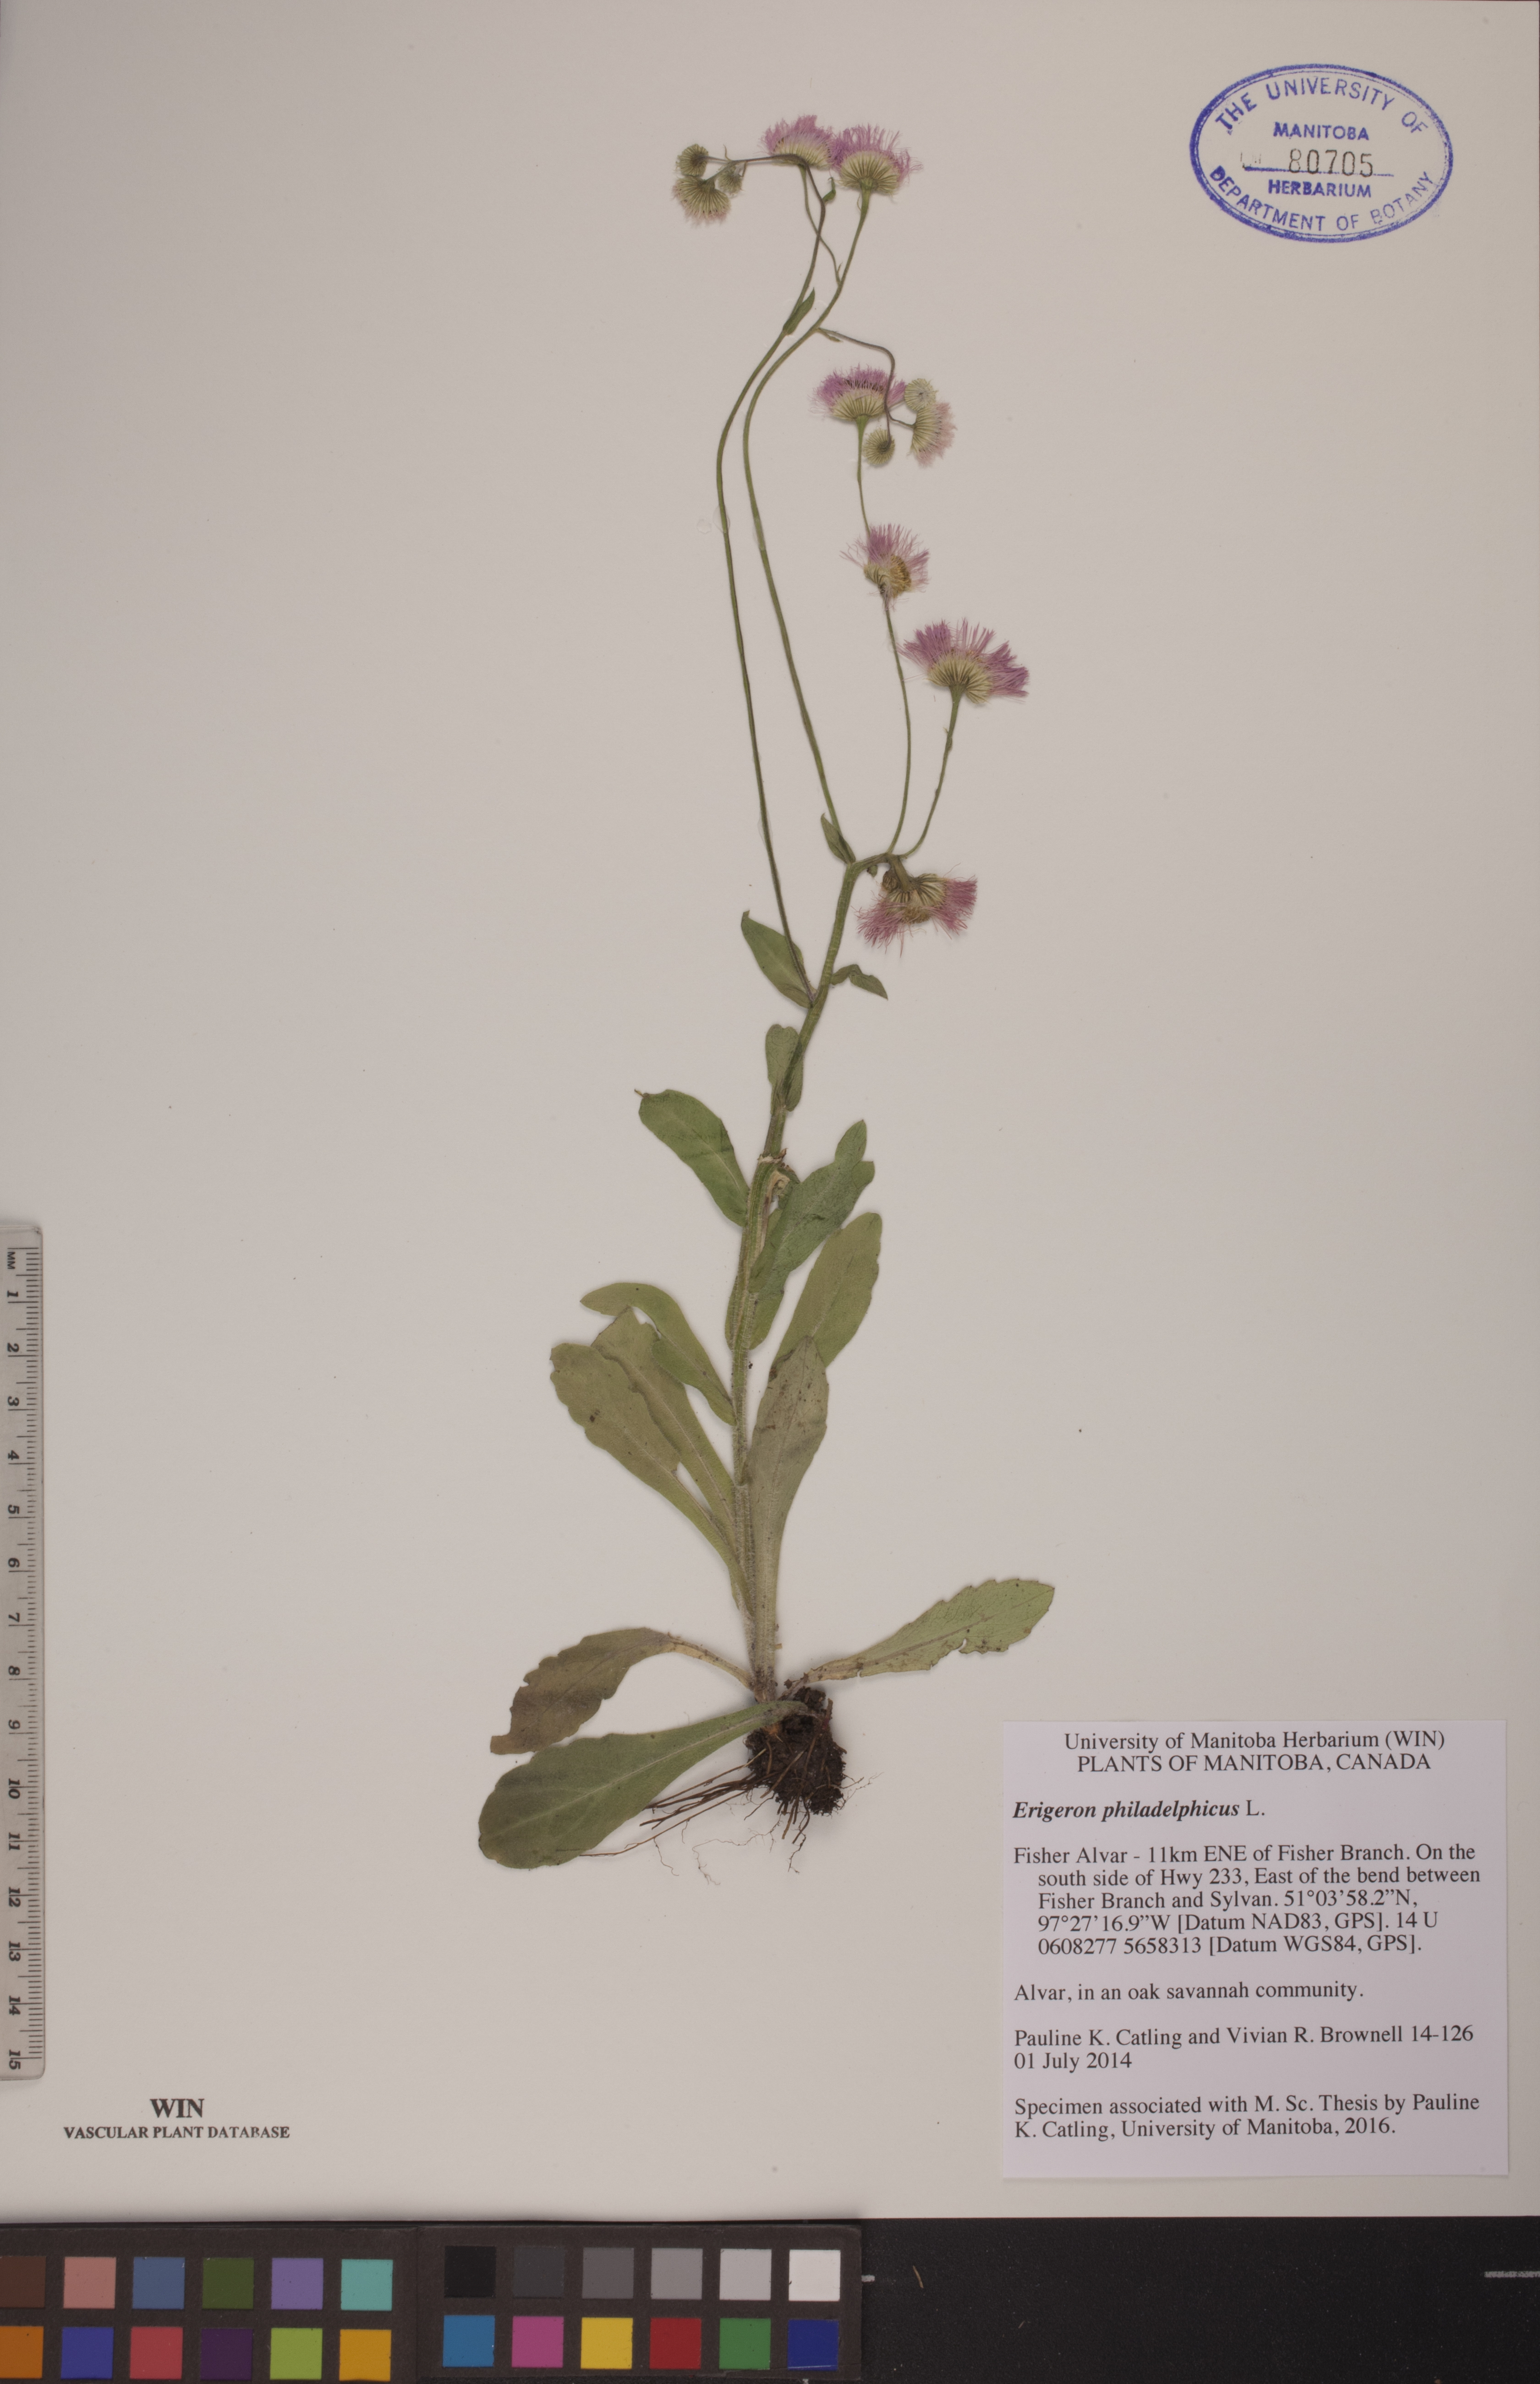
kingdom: Plantae
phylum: Tracheophyta
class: Magnoliopsida
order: Asterales
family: Asteraceae
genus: Erigeron
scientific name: Erigeron philadelphicus
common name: Robin's-plantain
